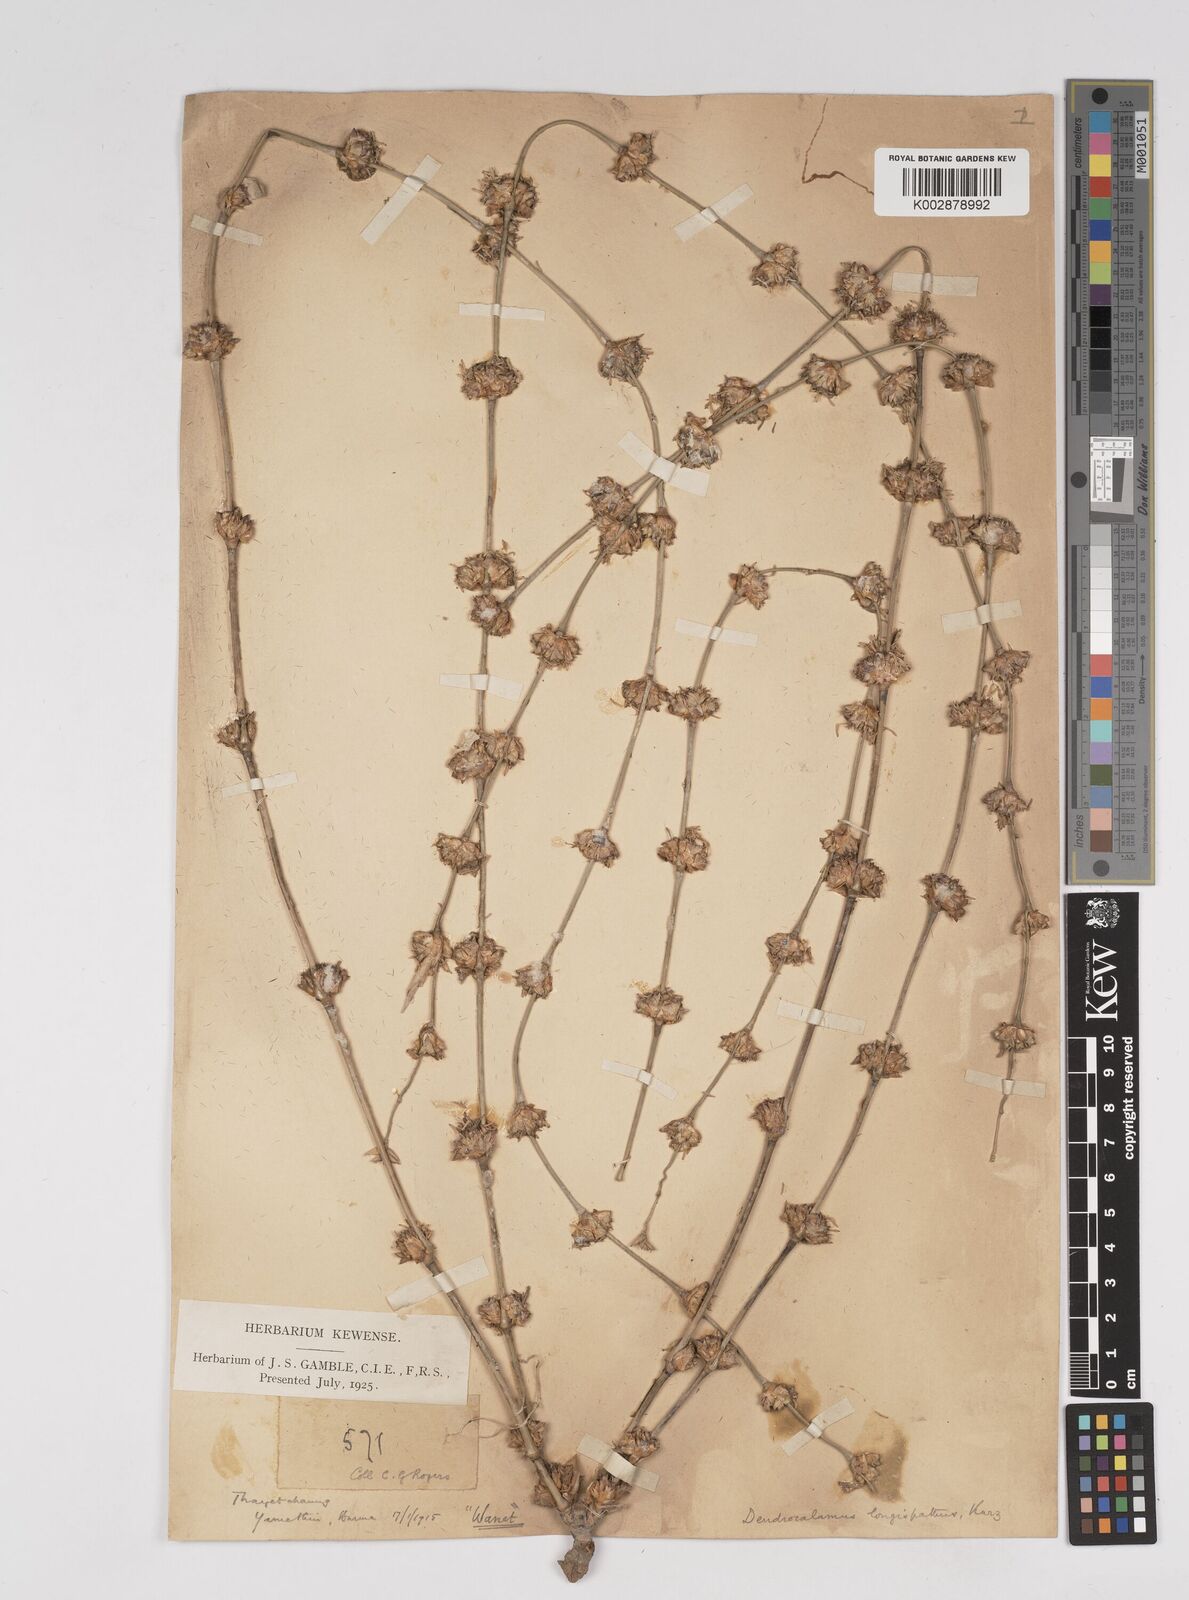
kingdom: Plantae
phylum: Tracheophyta
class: Liliopsida
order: Poales
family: Poaceae
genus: Dendrocalamus
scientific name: Dendrocalamus longispathus
